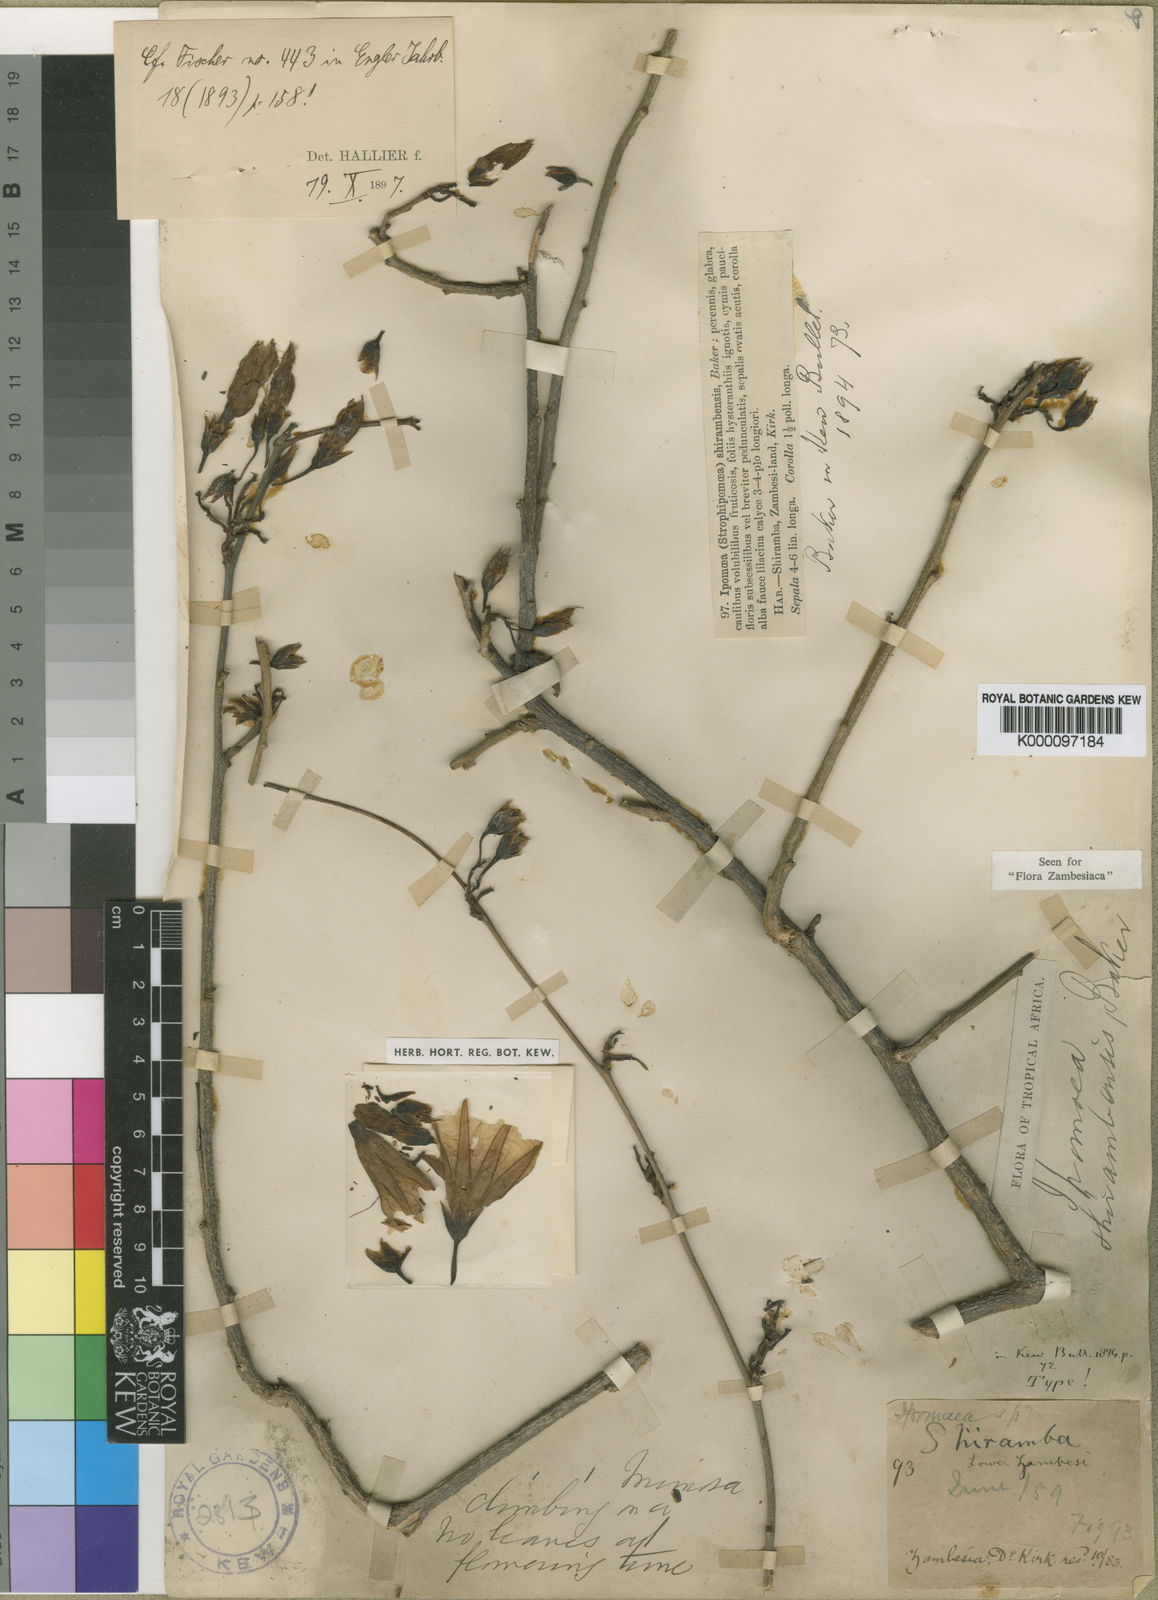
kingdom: Plantae
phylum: Tracheophyta
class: Magnoliopsida
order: Solanales
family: Convolvulaceae
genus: Ipomoea
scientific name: Ipomoea shirambensis
